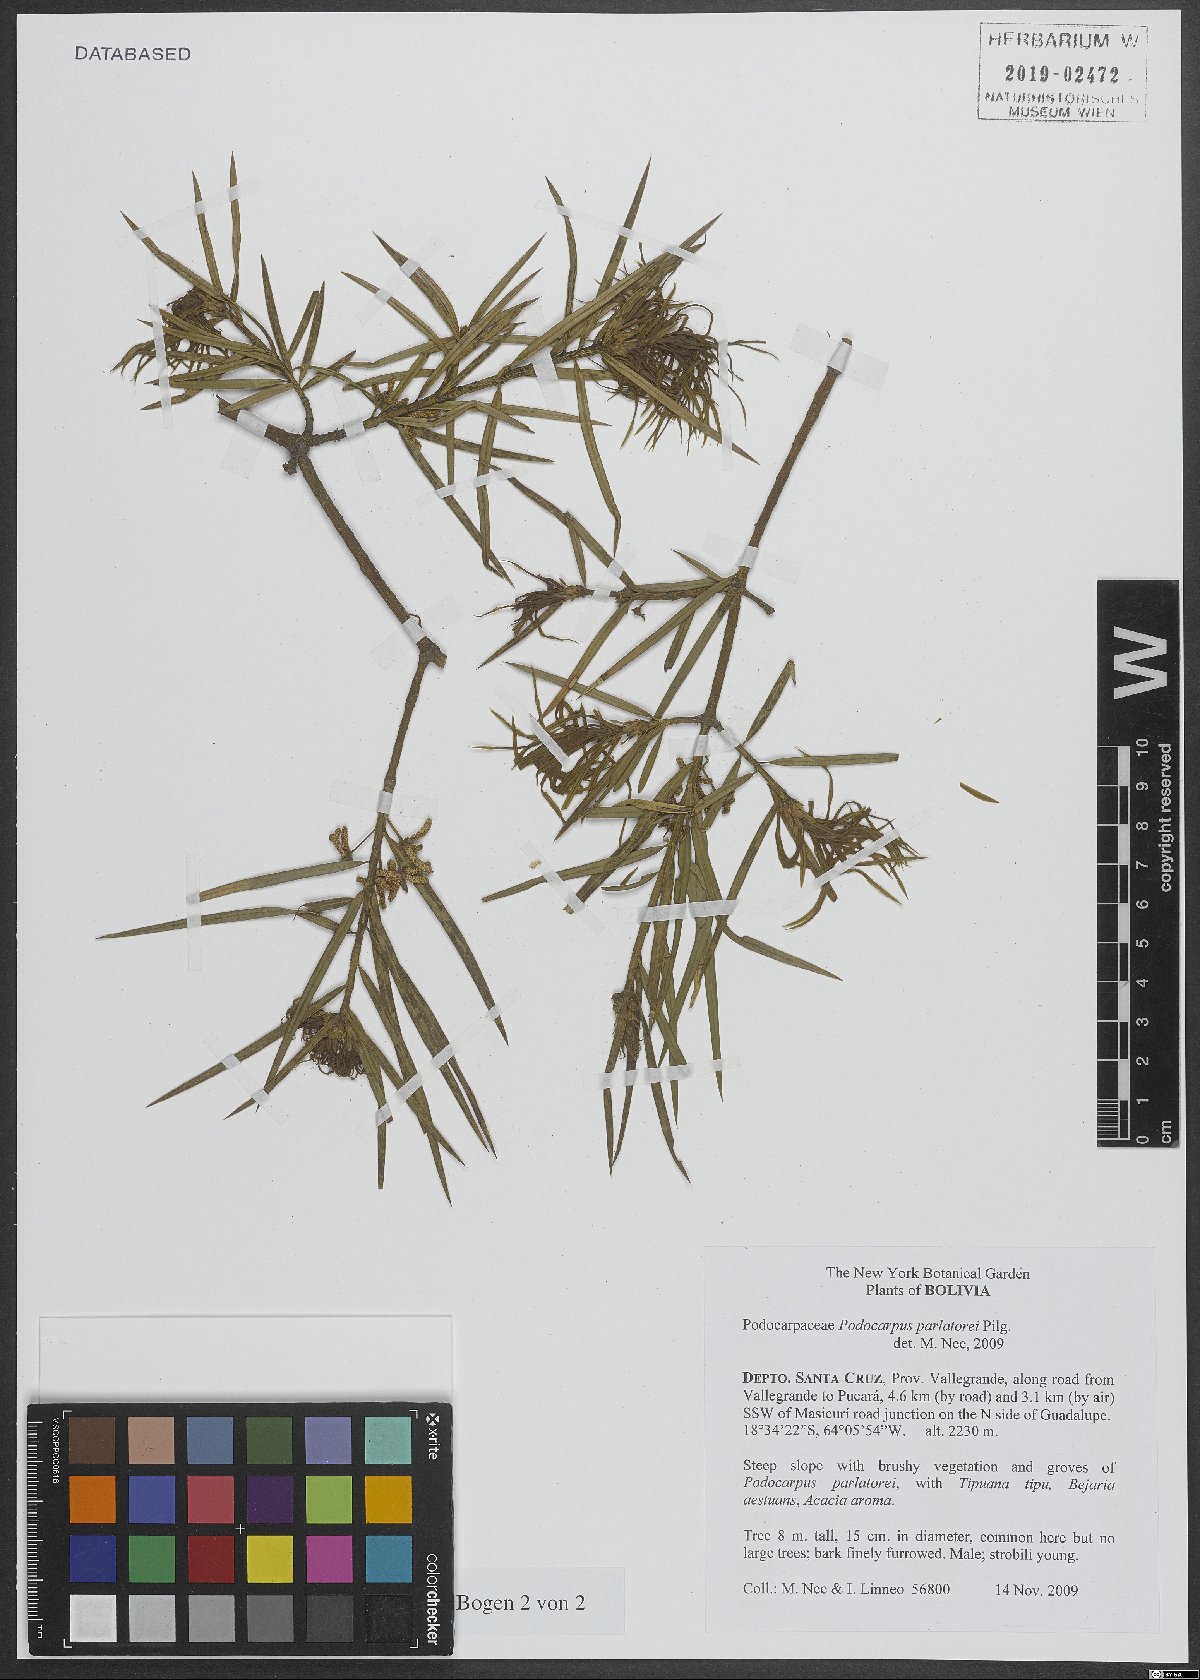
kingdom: Plantae
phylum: Tracheophyta
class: Pinopsida
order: Pinales
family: Podocarpaceae
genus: Podocarpus
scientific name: Podocarpus parlatorei
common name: Pino blanco
